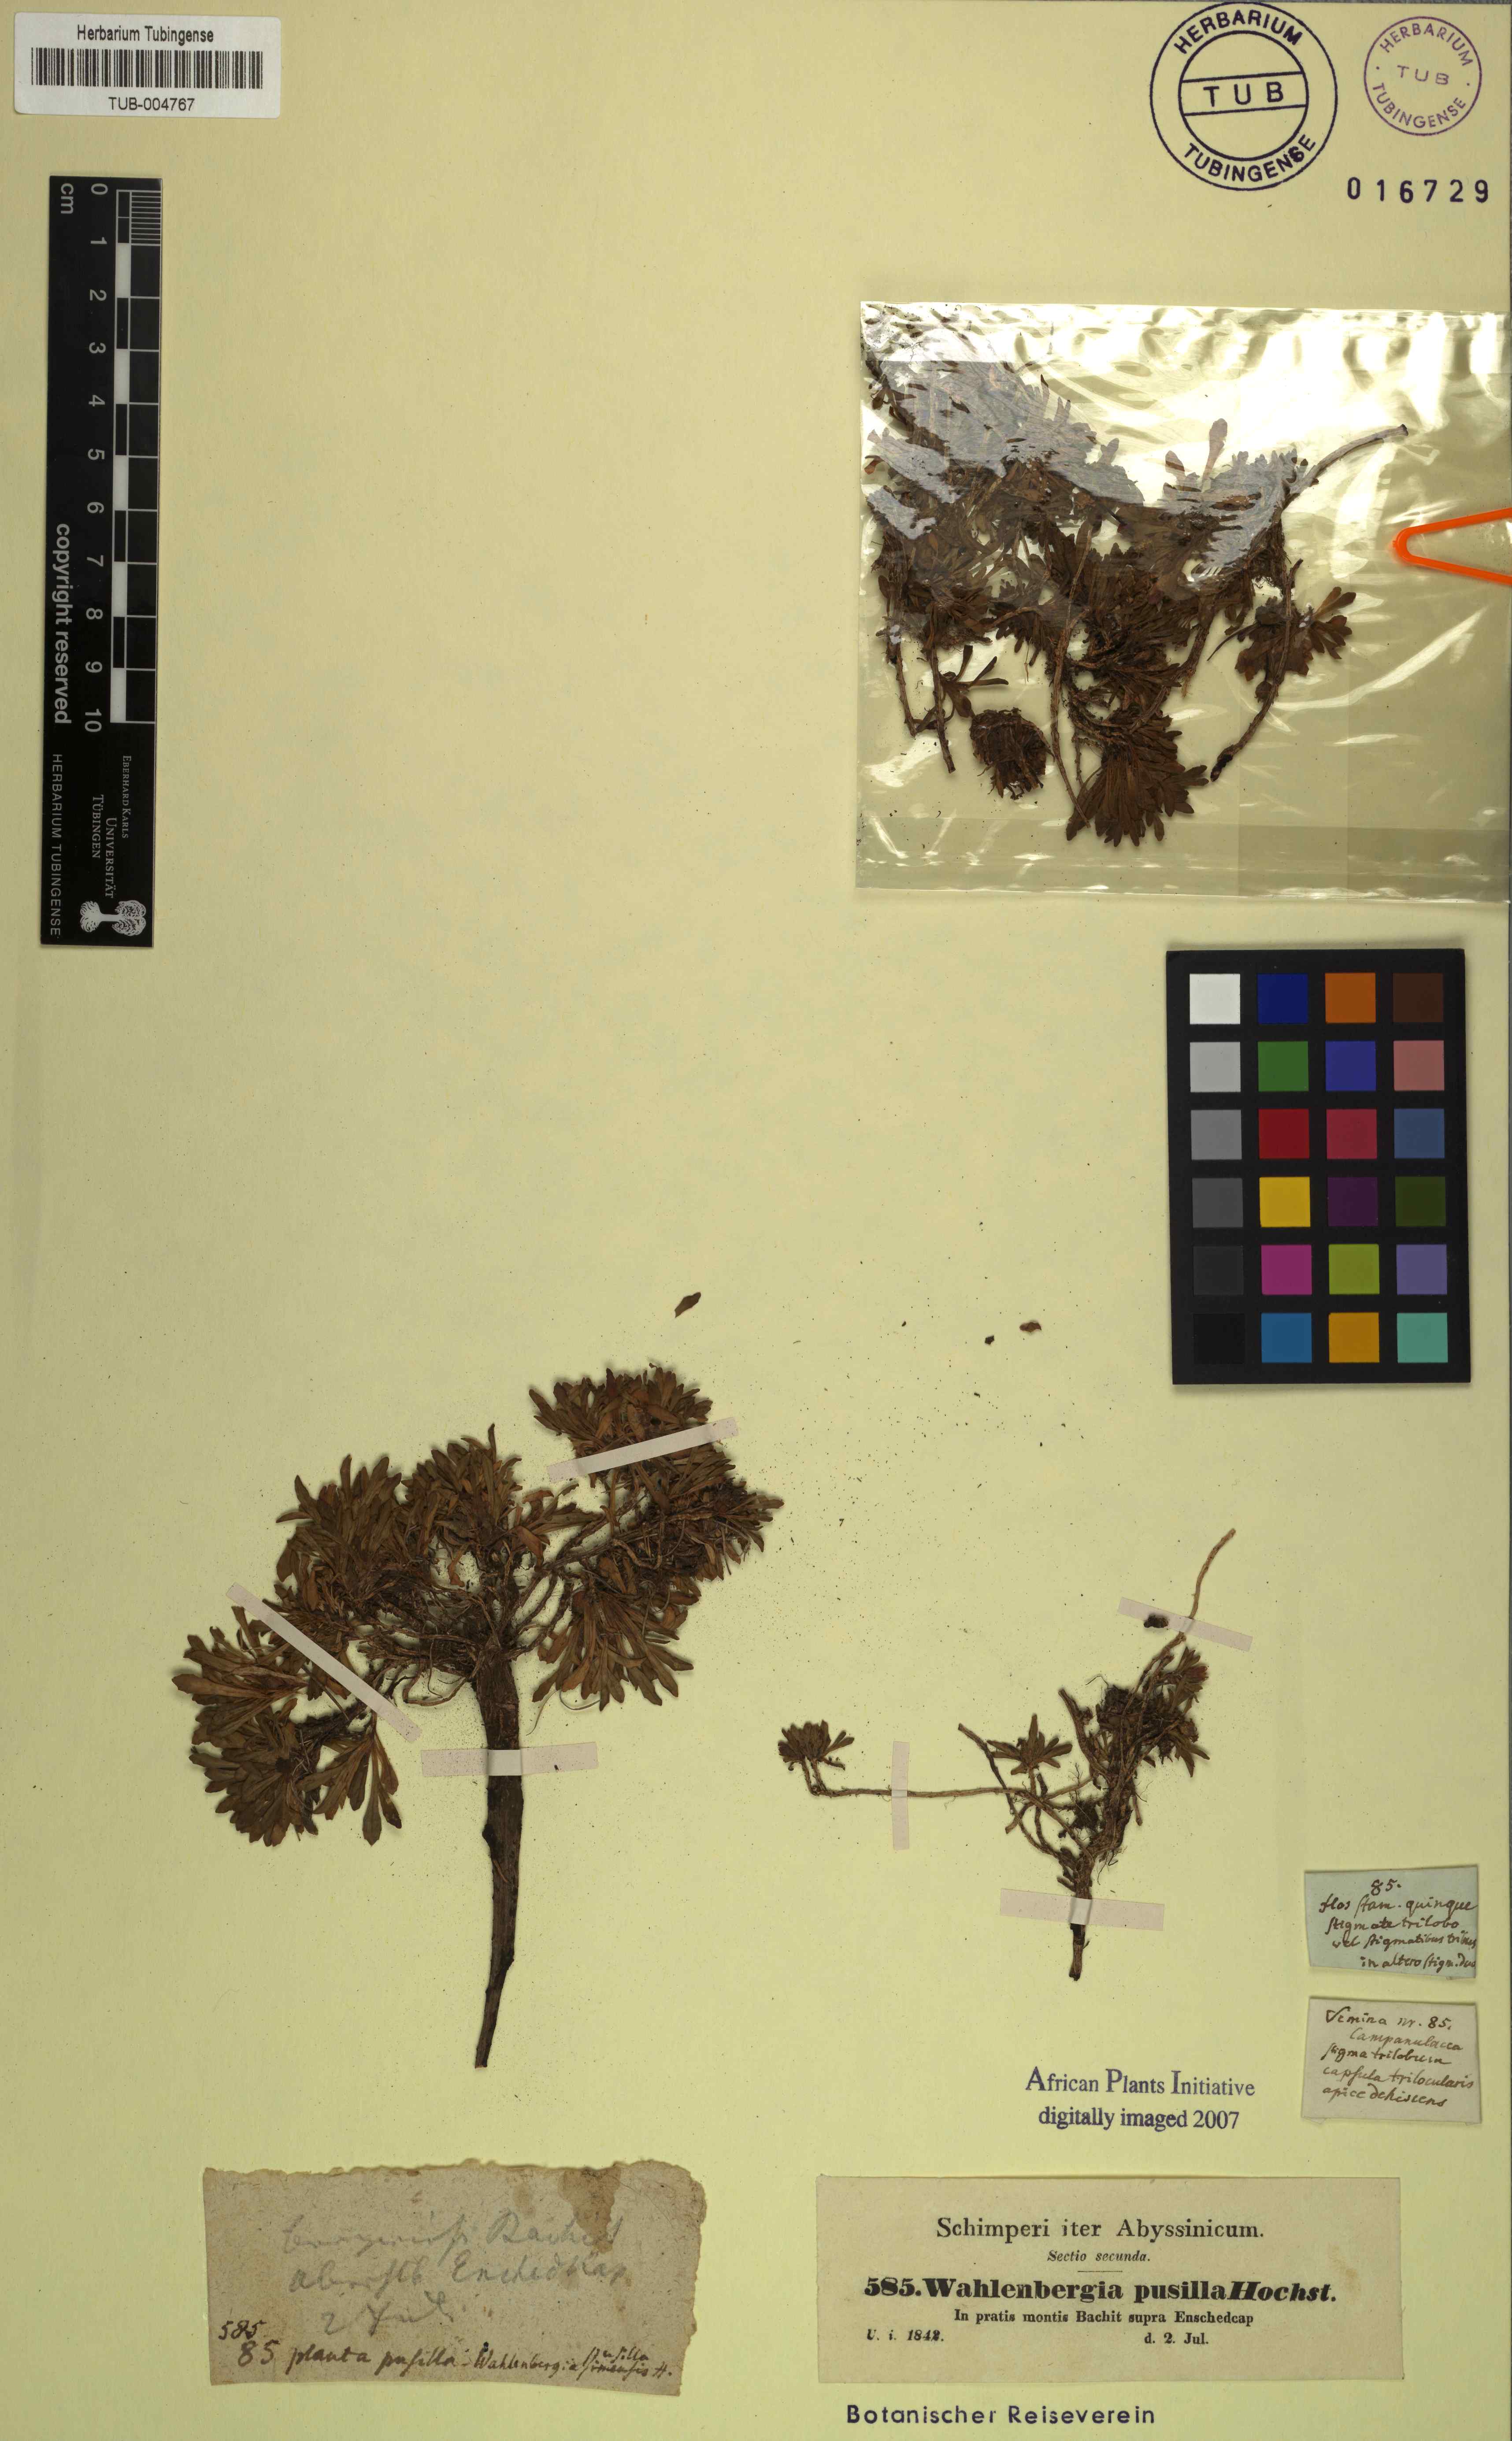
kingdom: Plantae
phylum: Tracheophyta
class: Magnoliopsida
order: Asterales
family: Campanulaceae
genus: Wahlenbergia
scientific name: Wahlenbergia pusilla
